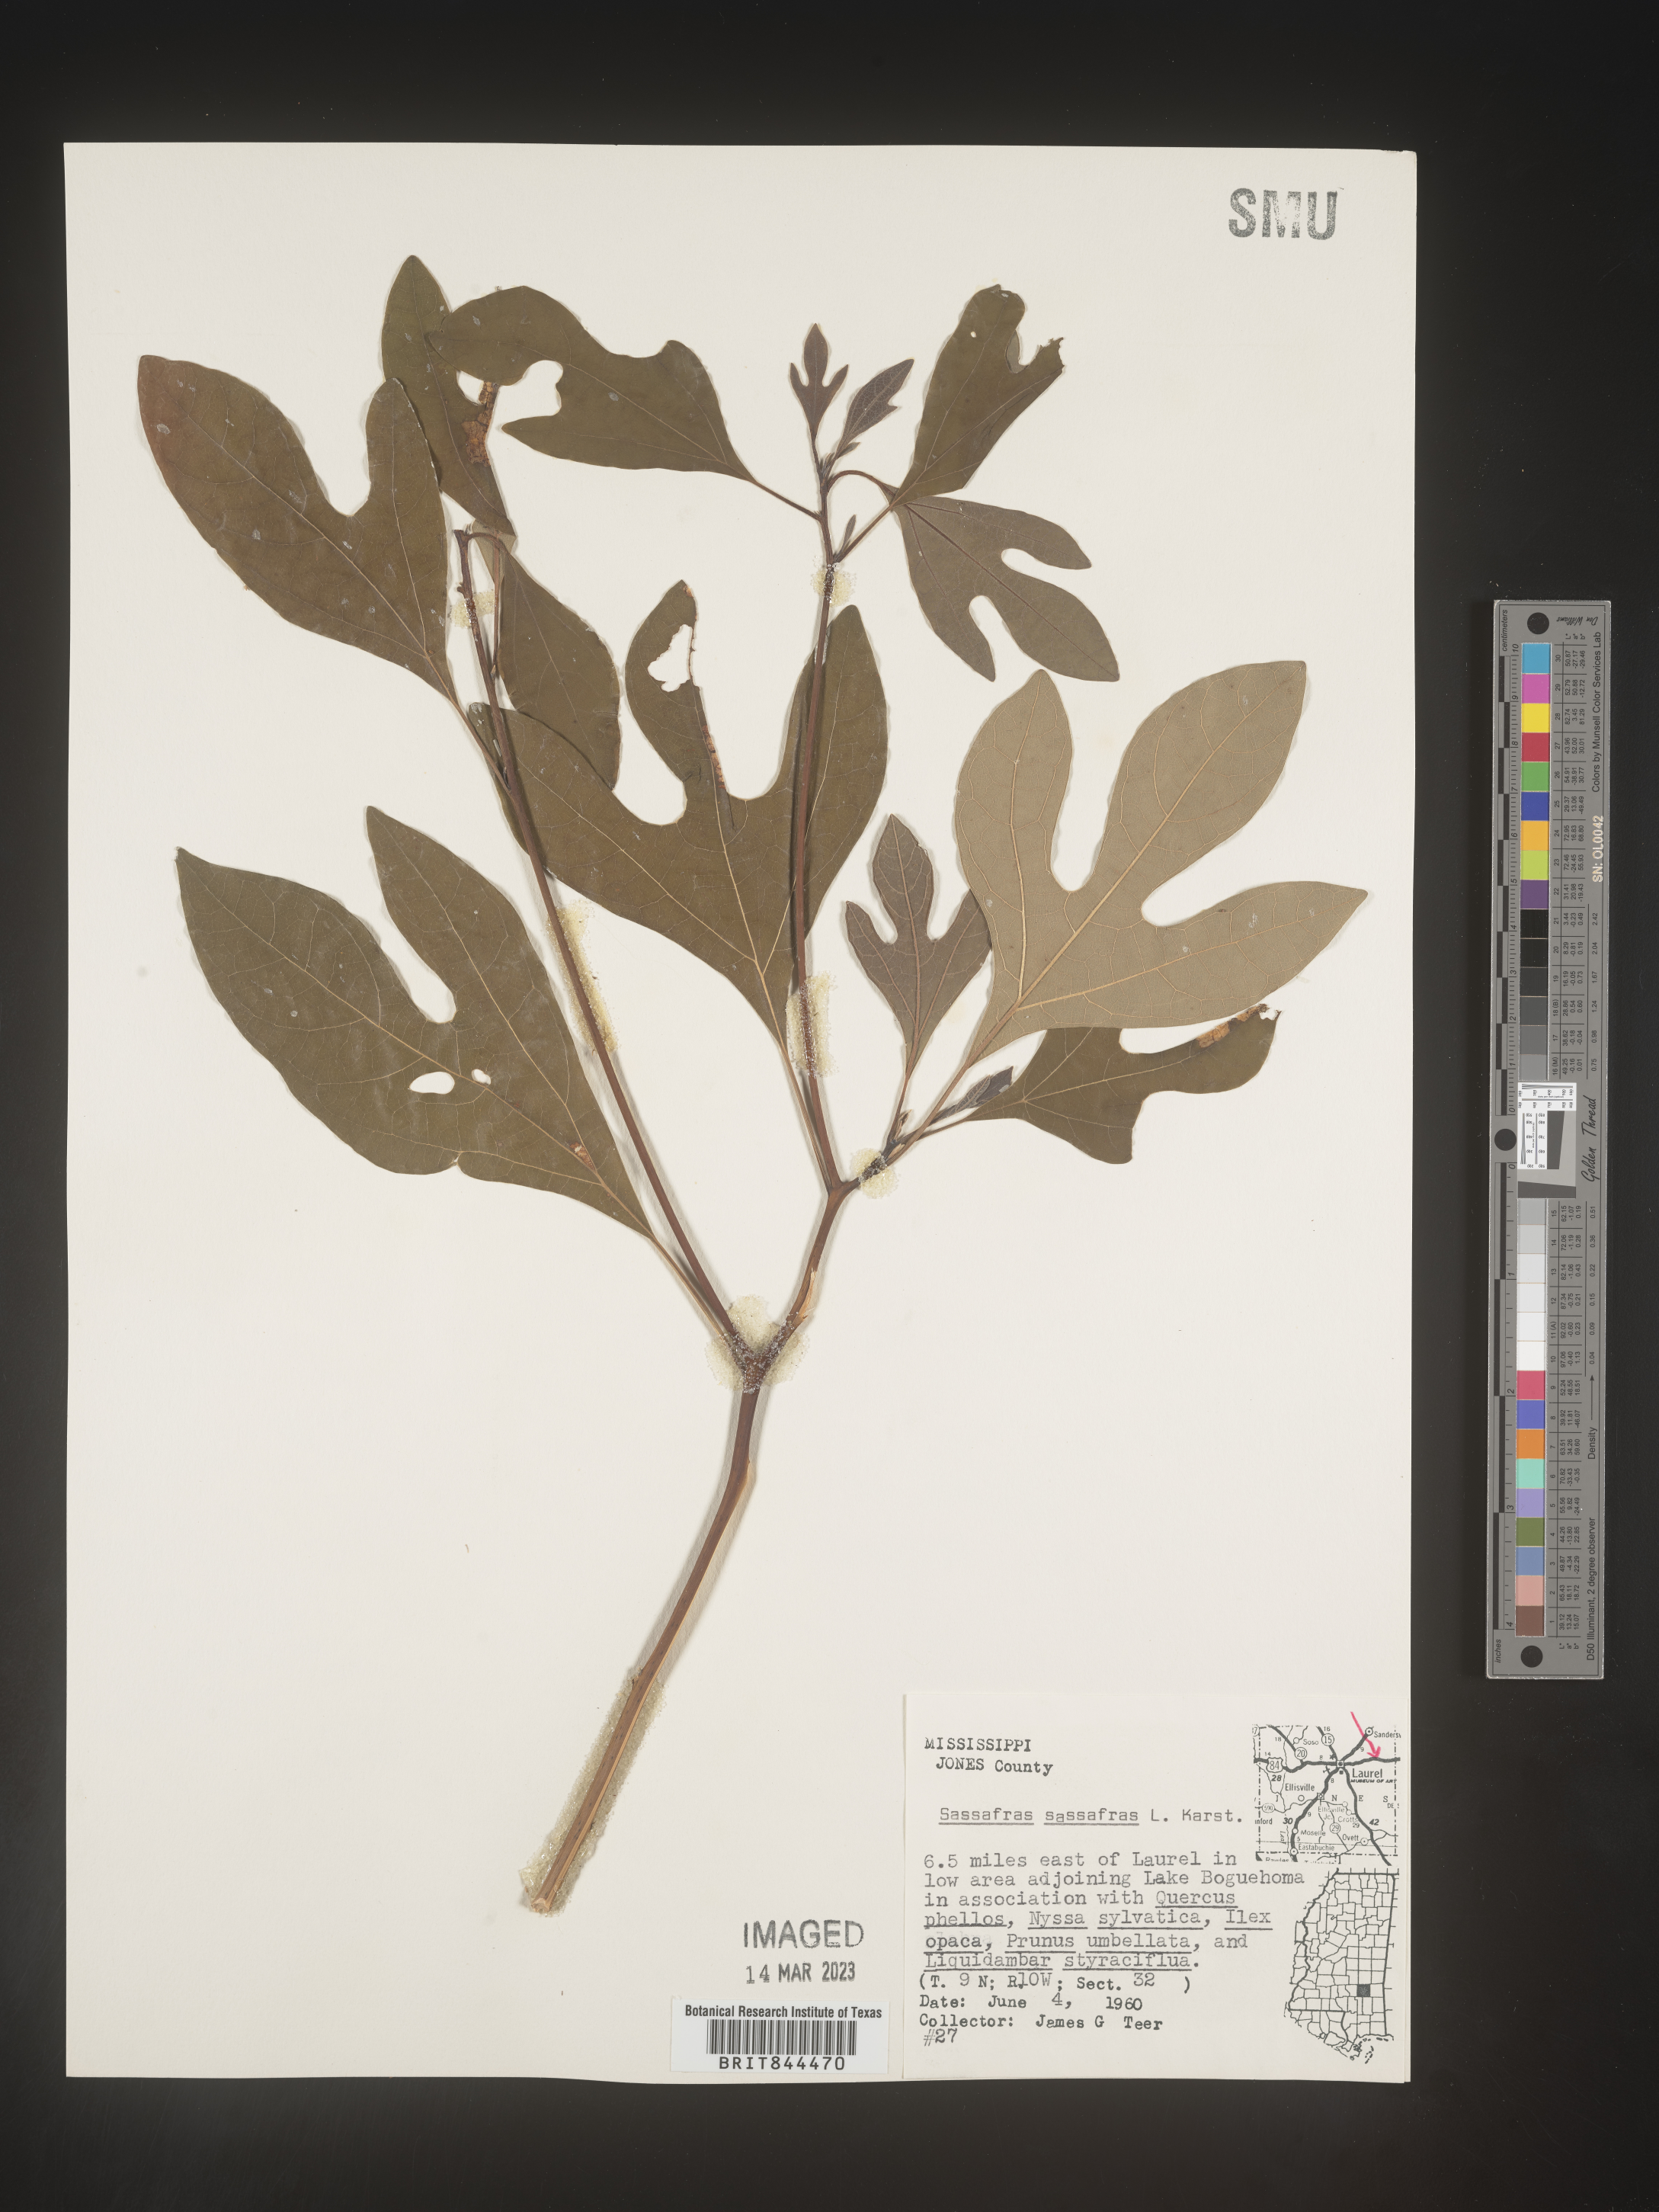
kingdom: Plantae
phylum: Tracheophyta
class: Magnoliopsida
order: Laurales
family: Lauraceae
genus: Sassafras
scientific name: Sassafras albidum
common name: Sassafras
